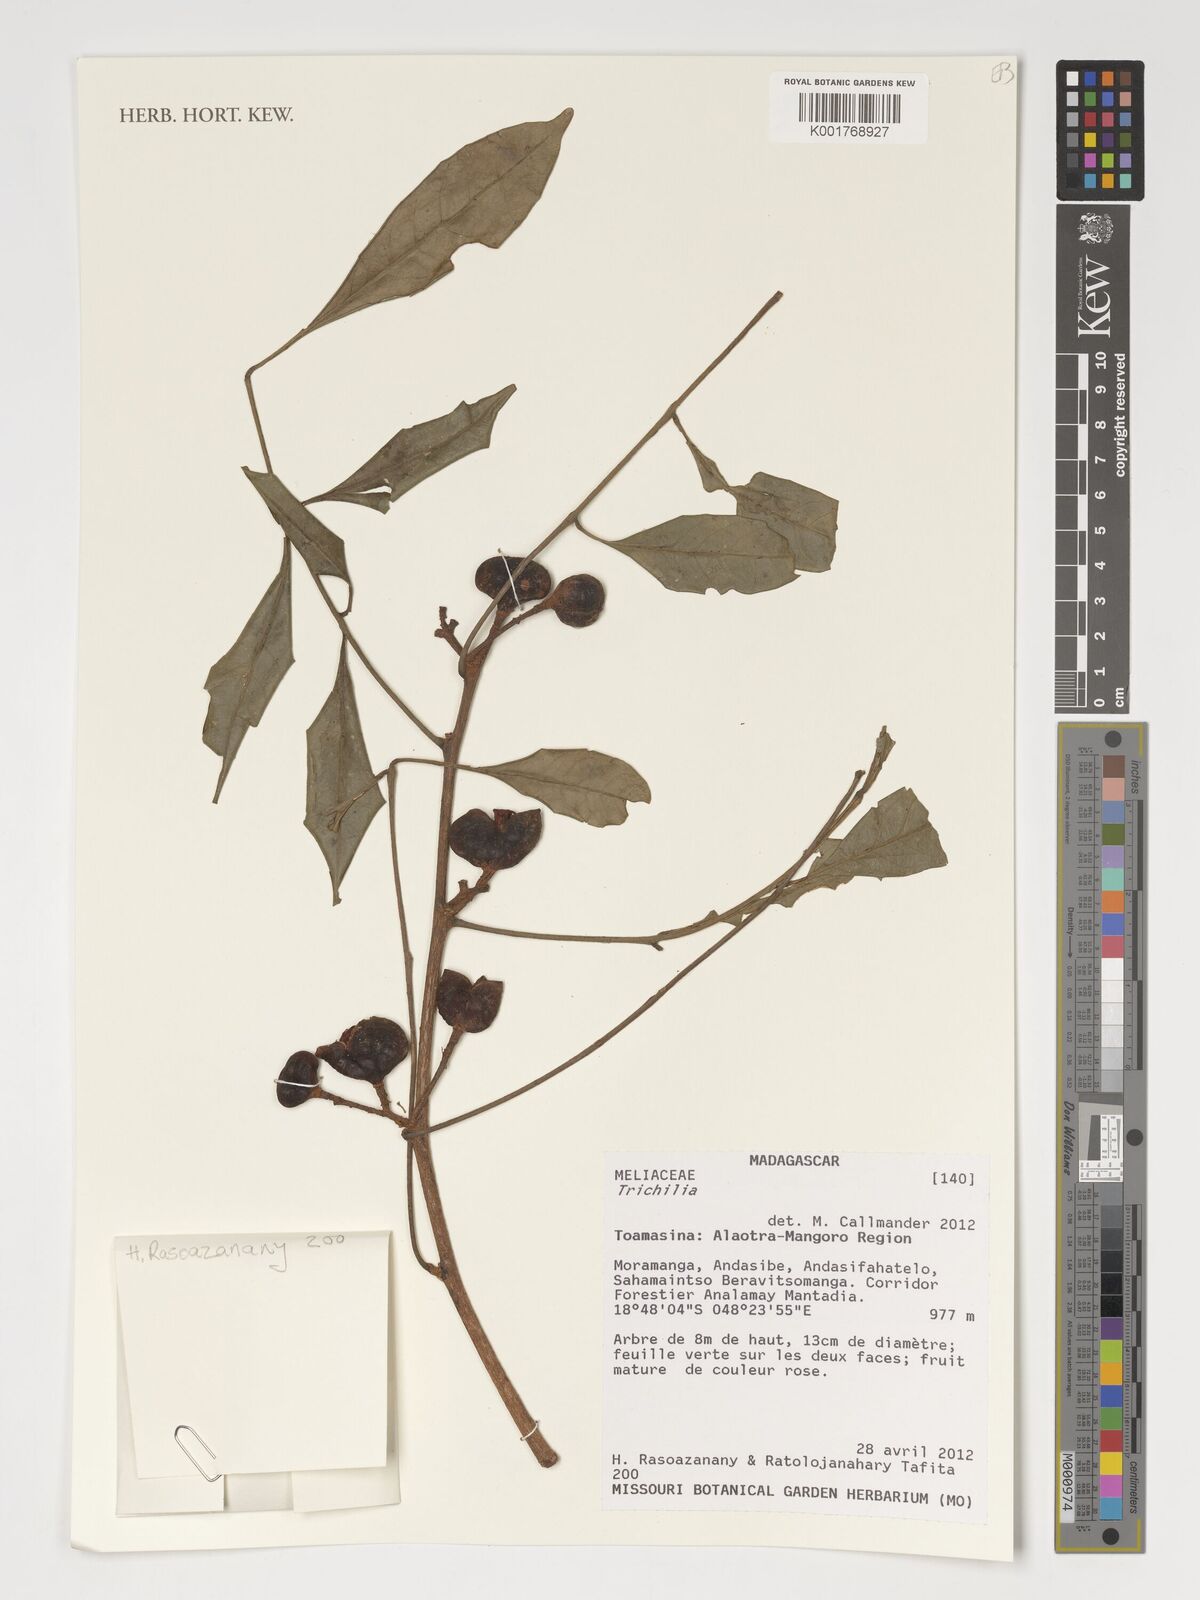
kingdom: Plantae
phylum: Tracheophyta
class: Magnoliopsida
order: Sapindales
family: Meliaceae
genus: Trichilia
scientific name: Trichilia
